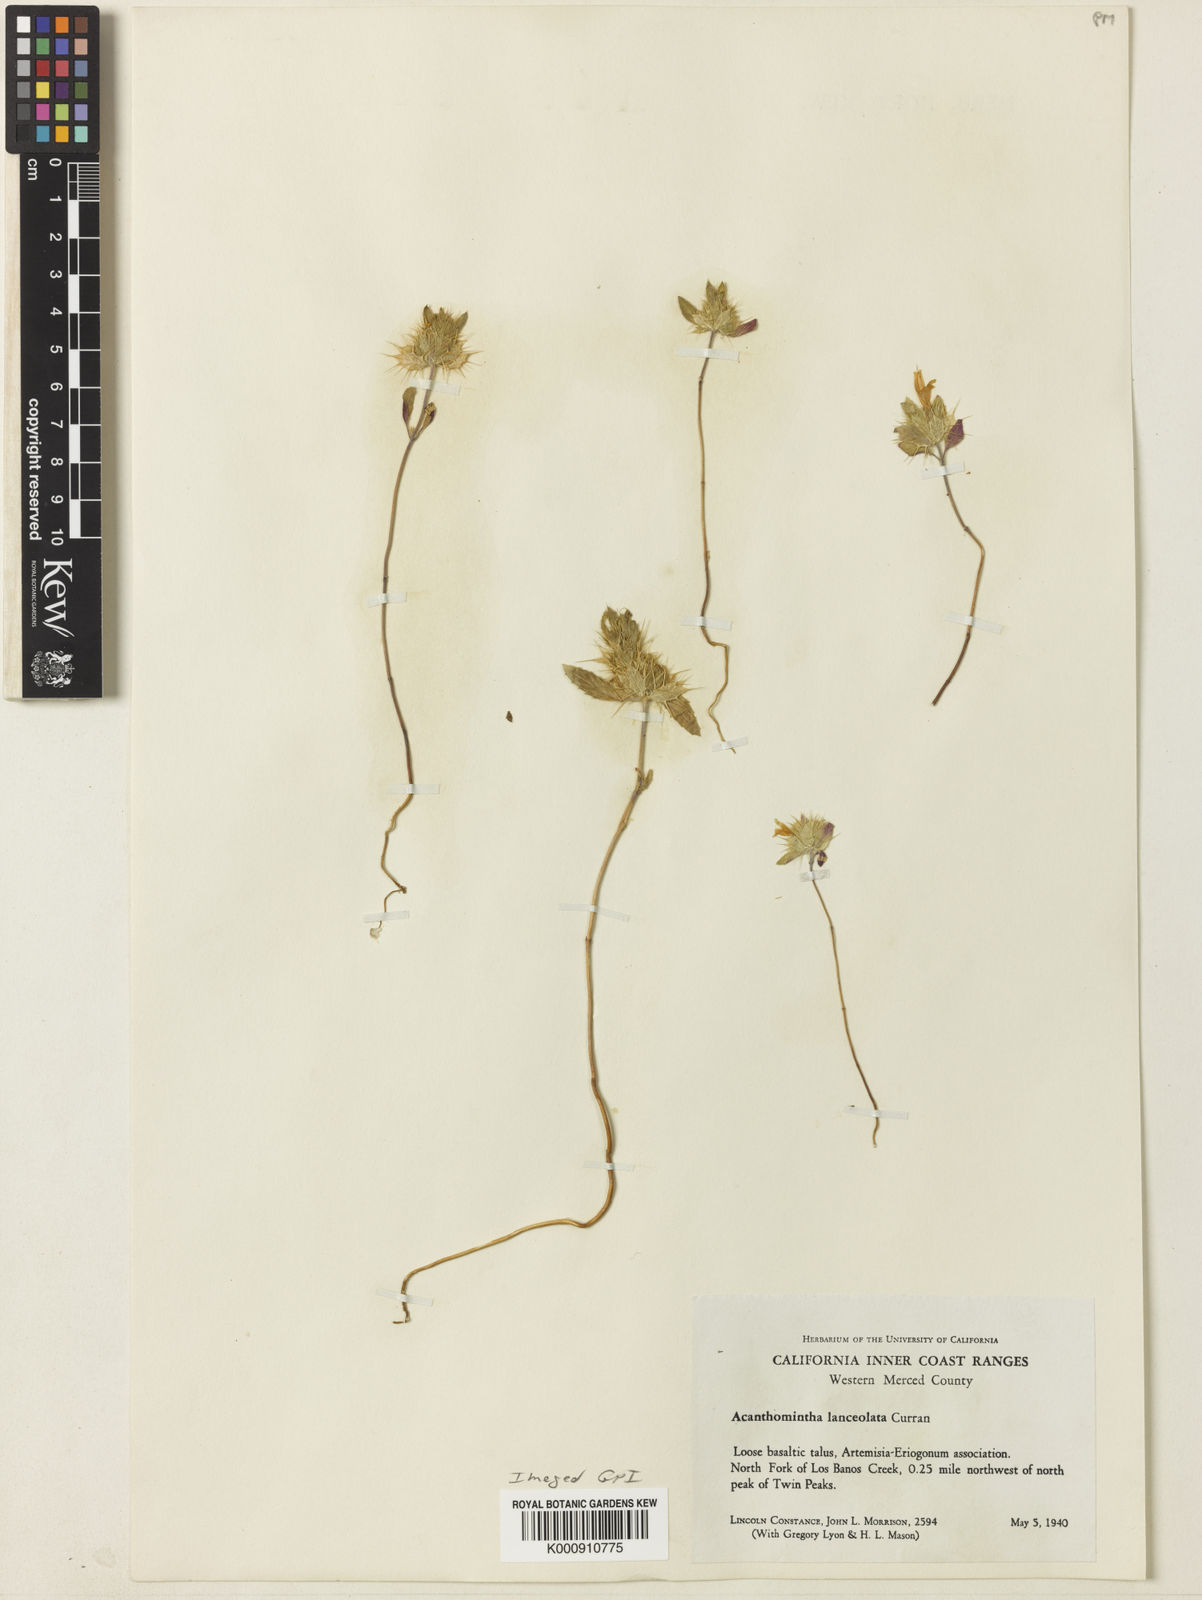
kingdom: Plantae
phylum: Tracheophyta
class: Magnoliopsida
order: Lamiales
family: Lamiaceae
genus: Acanthomintha
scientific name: Acanthomintha lanceolata
